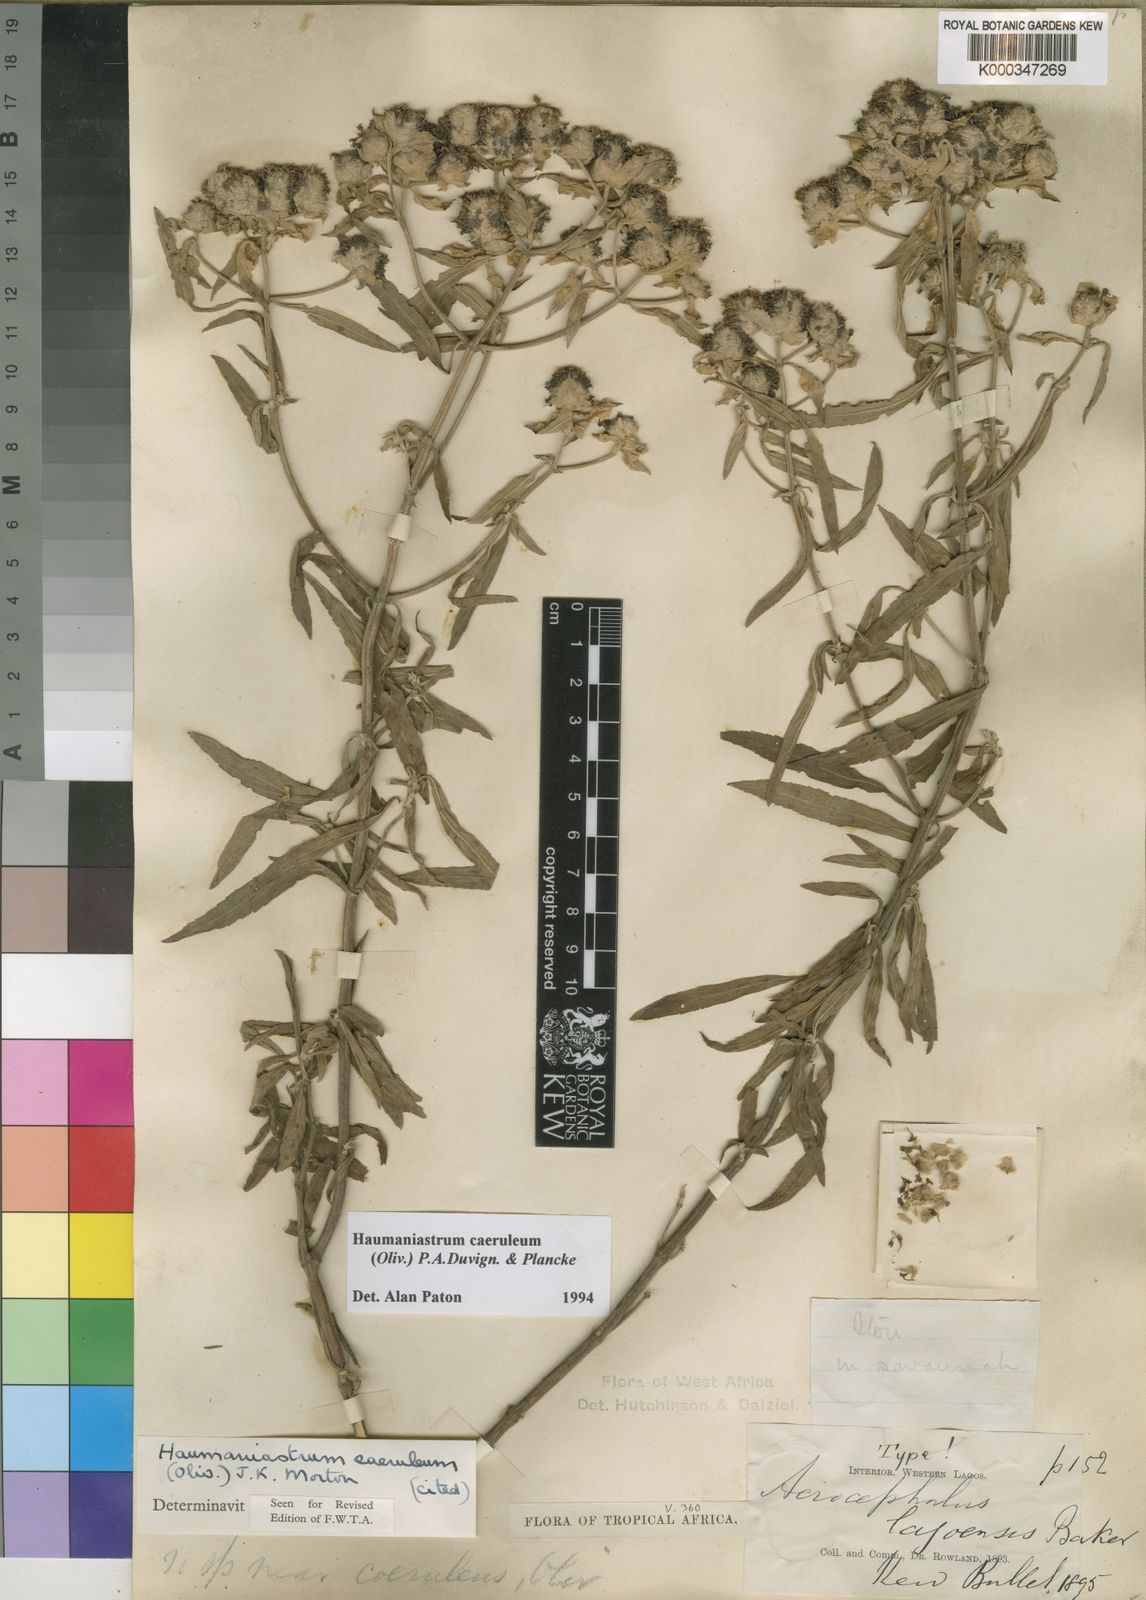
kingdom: Plantae
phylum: Tracheophyta
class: Magnoliopsida
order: Lamiales
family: Lamiaceae
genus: Haumaniastrum
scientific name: Haumaniastrum caeruleum
